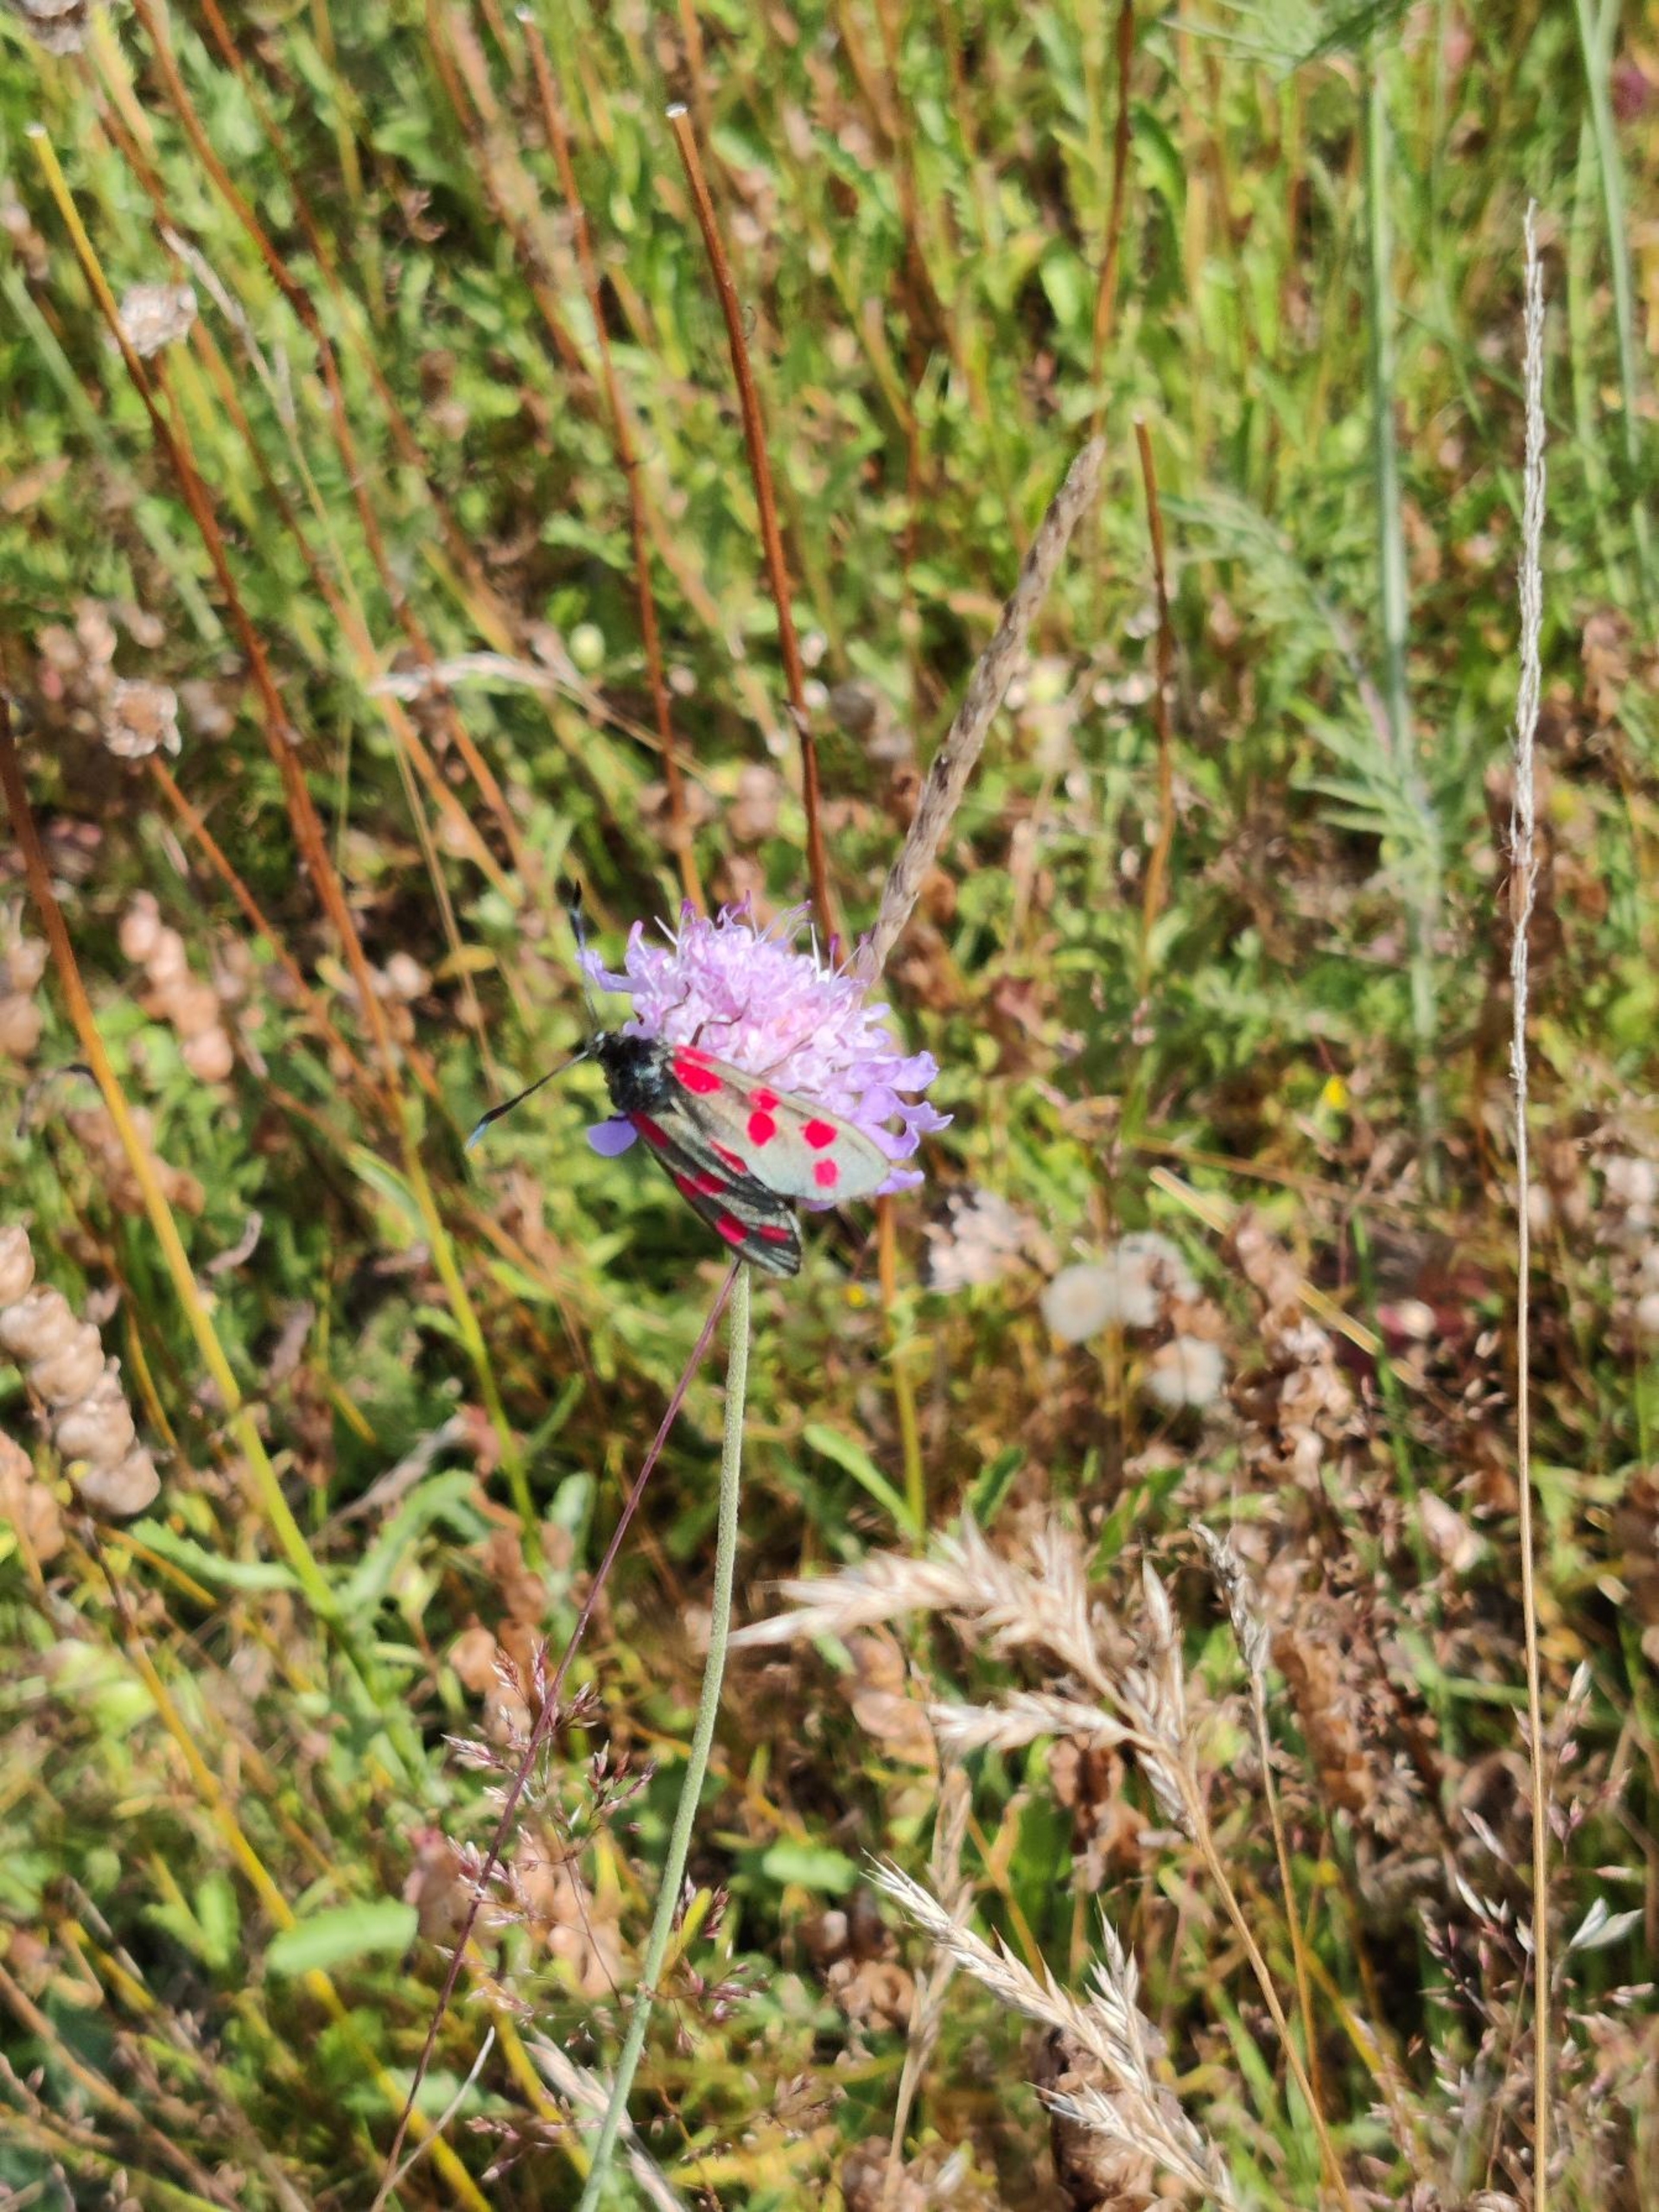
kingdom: Animalia
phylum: Arthropoda
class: Insecta
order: Lepidoptera
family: Zygaenidae
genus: Zygaena
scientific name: Zygaena filipendulae
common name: Seksplettet køllesværmer
